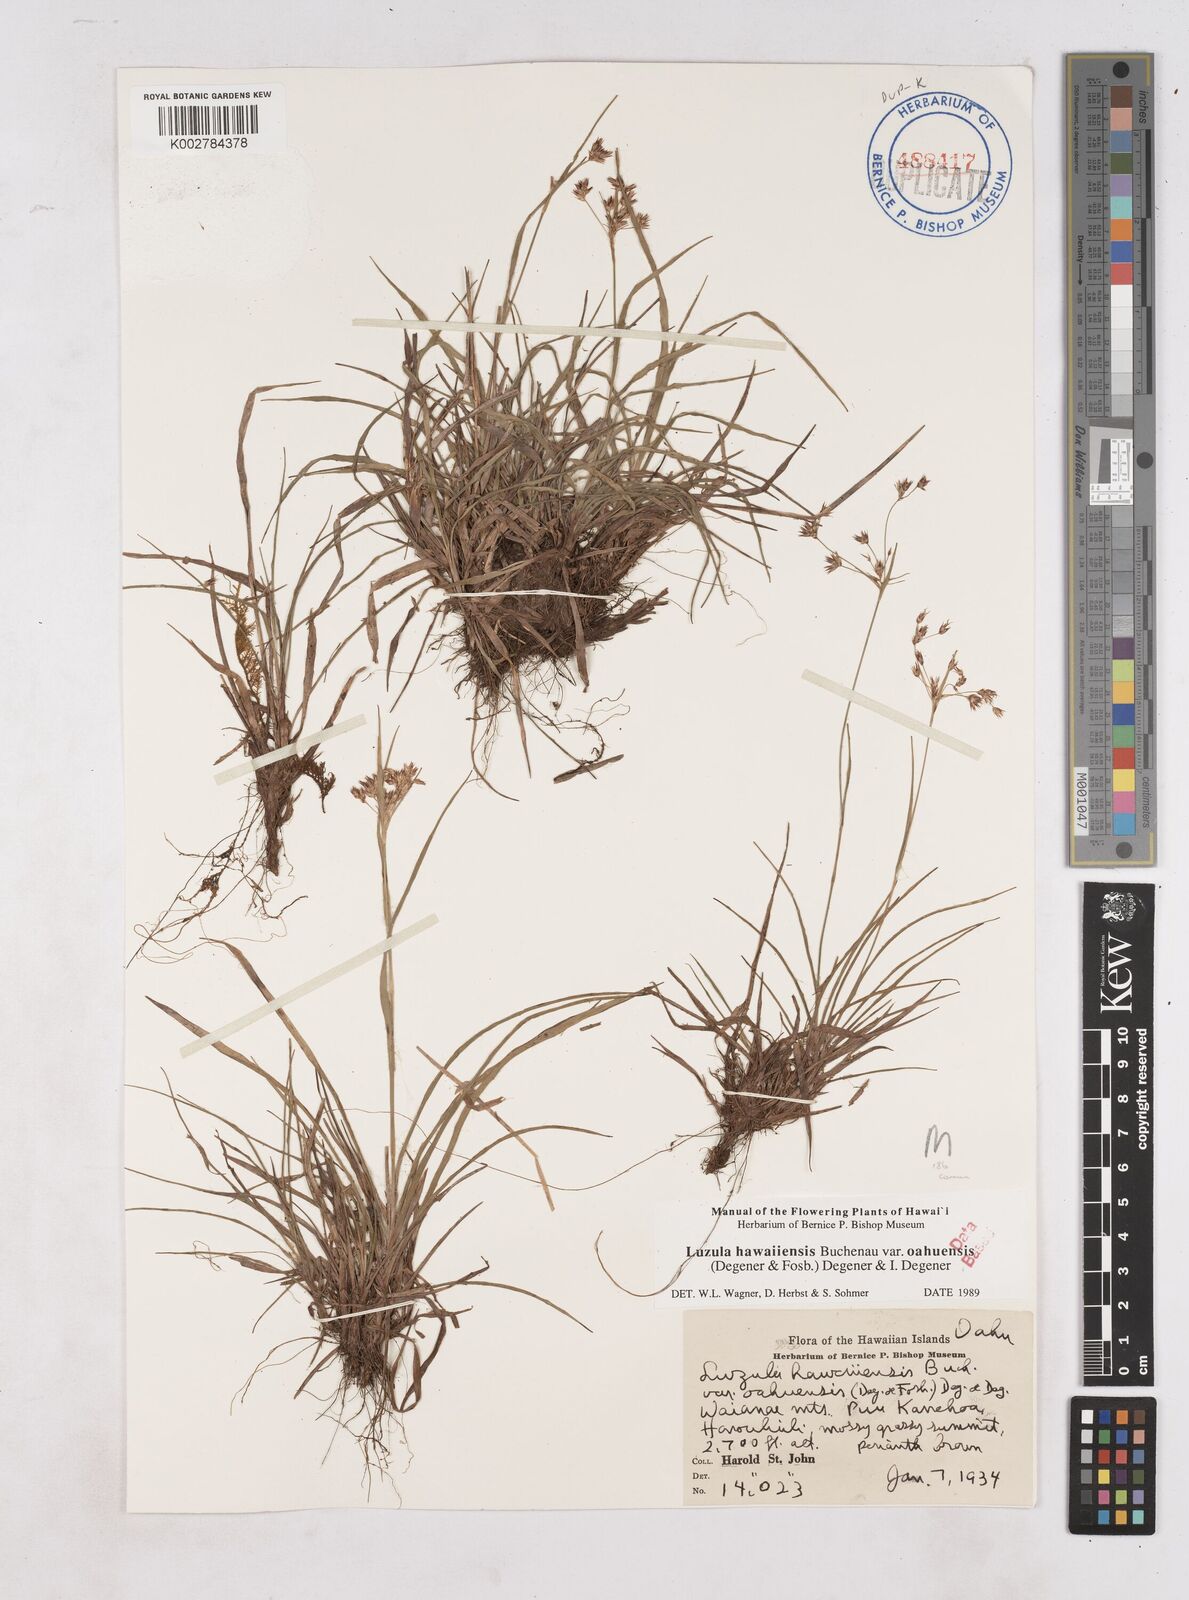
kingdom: Plantae
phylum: Tracheophyta
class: Liliopsida
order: Poales
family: Juncaceae
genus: Luzula
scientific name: Luzula campestris
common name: Field wood-rush
